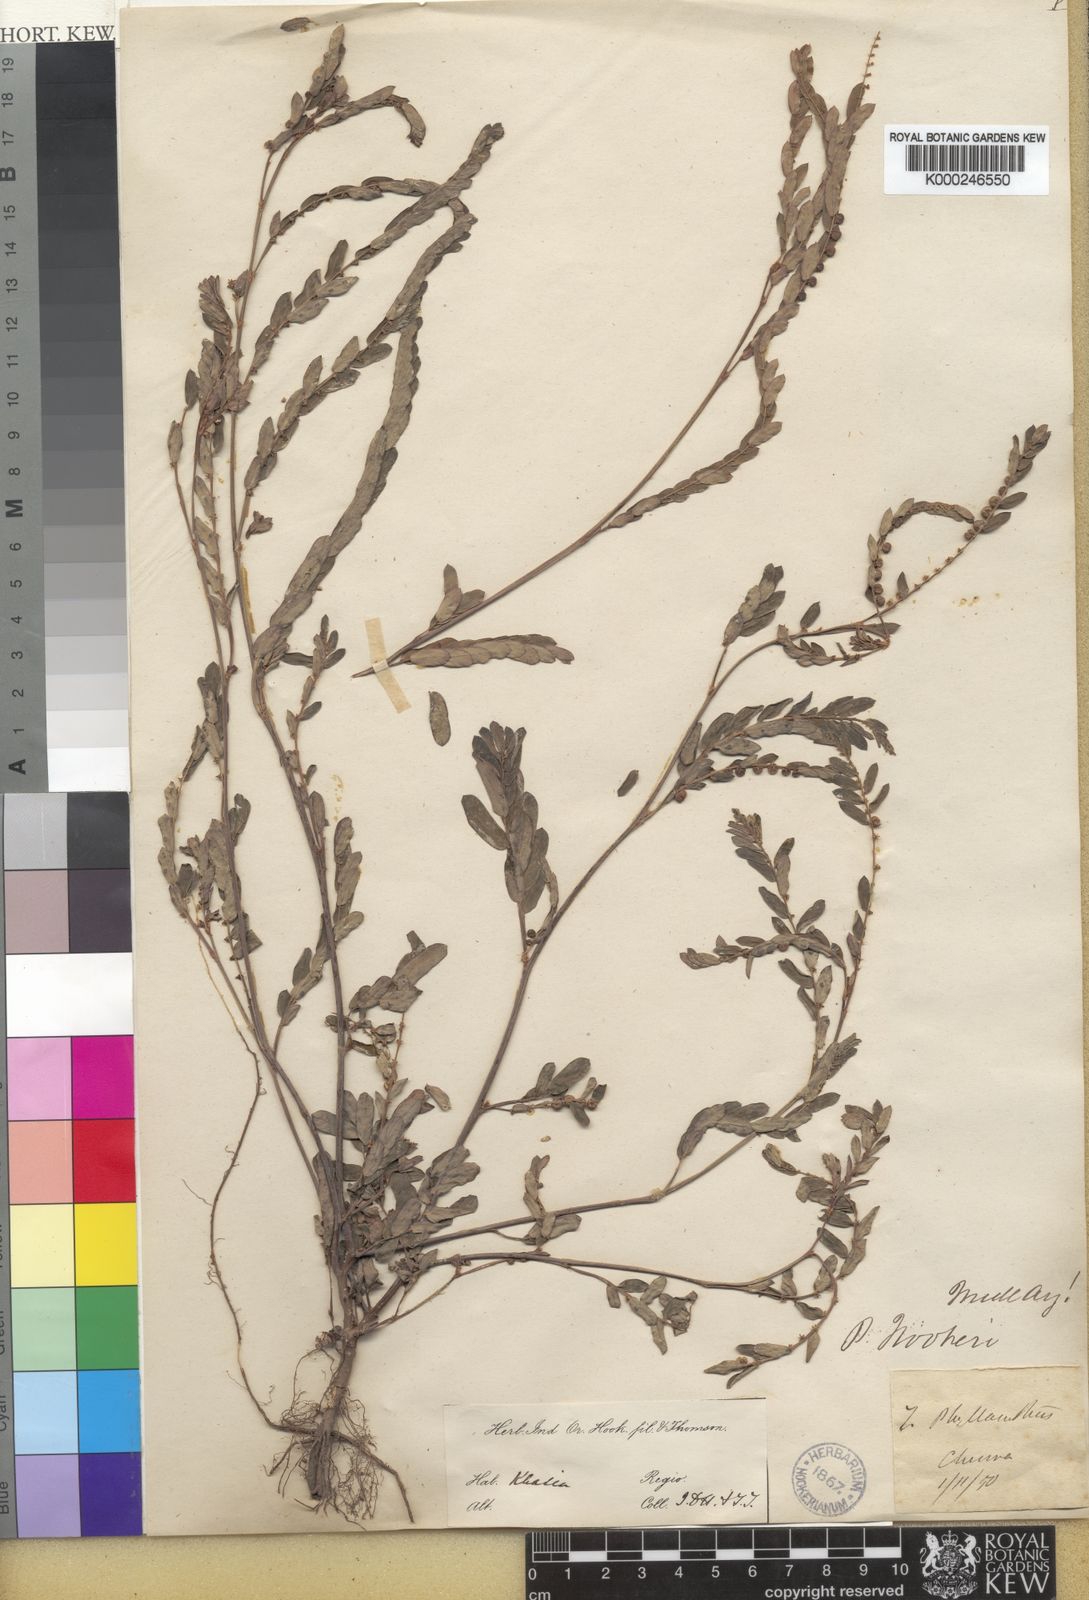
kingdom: Plantae
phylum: Tracheophyta
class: Magnoliopsida
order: Malpighiales
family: Phyllanthaceae
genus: Phyllanthus
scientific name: Phyllanthus urinaria
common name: Chamber bitter
